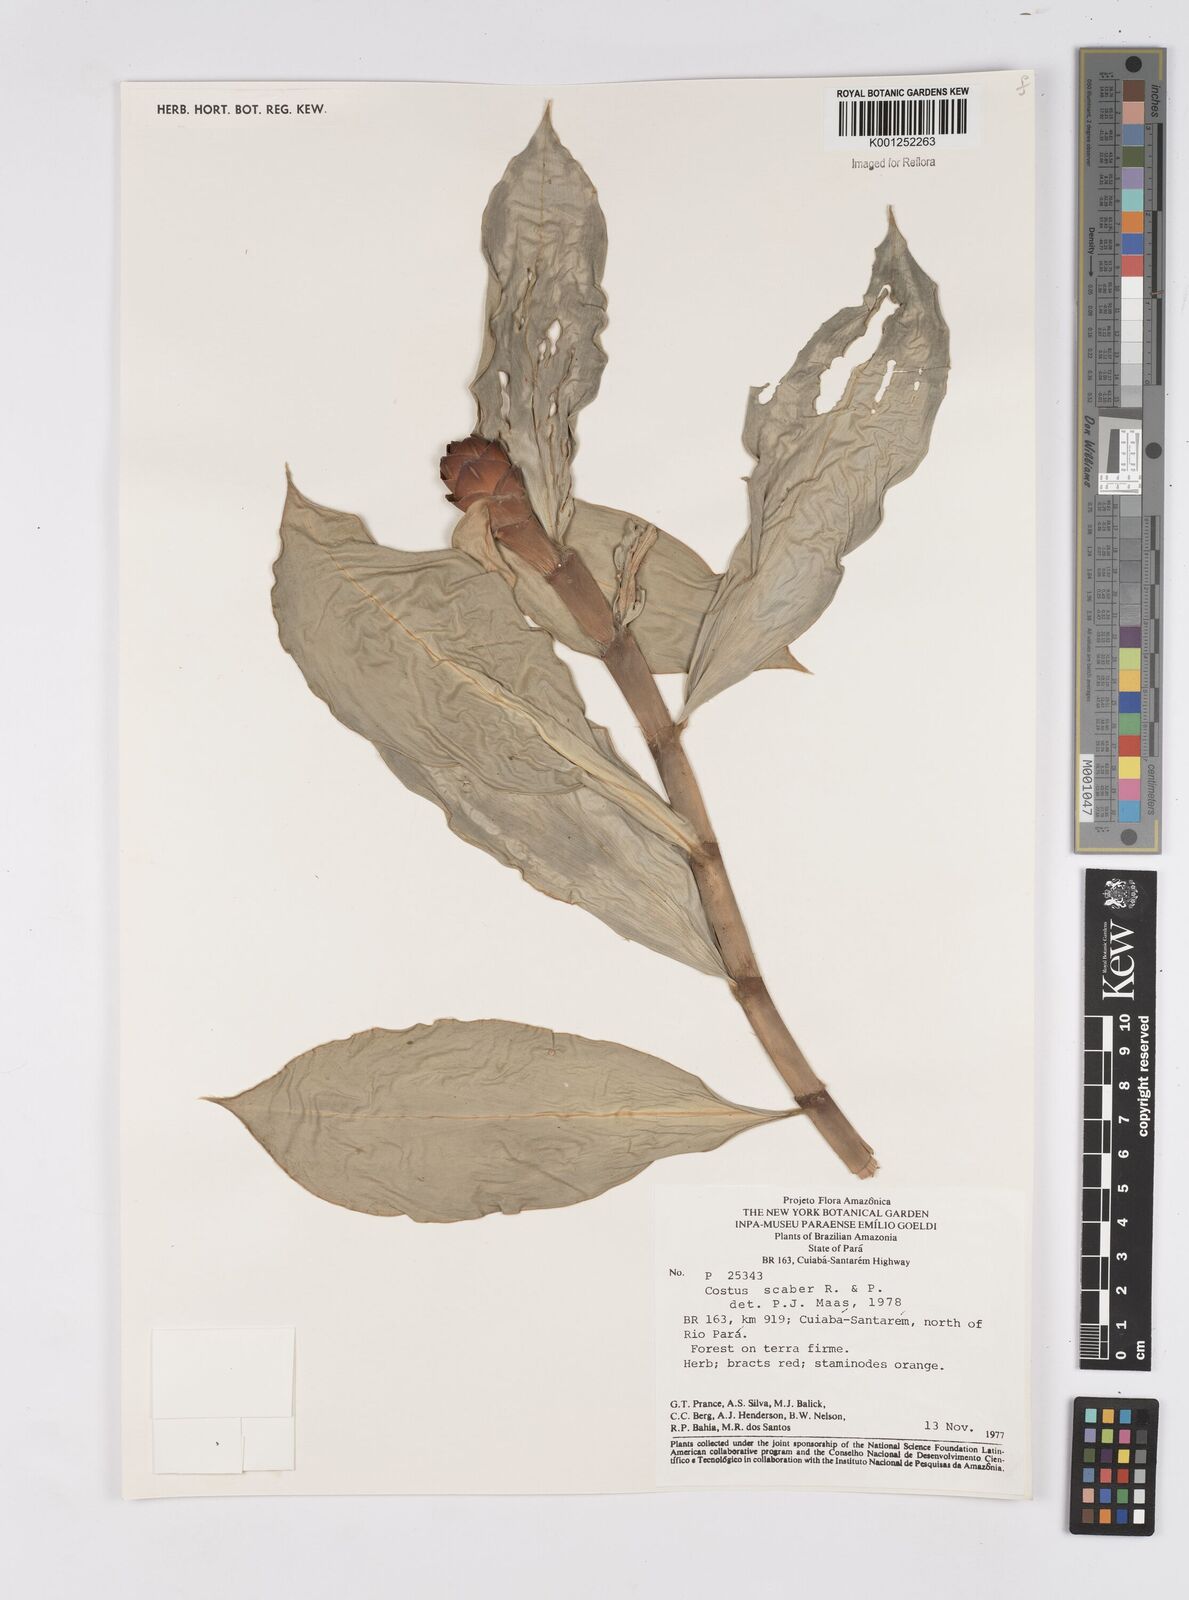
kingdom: Plantae
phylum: Tracheophyta
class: Liliopsida
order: Zingiberales
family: Costaceae
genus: Costus
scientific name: Costus scaber
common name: Spiral head ginger
